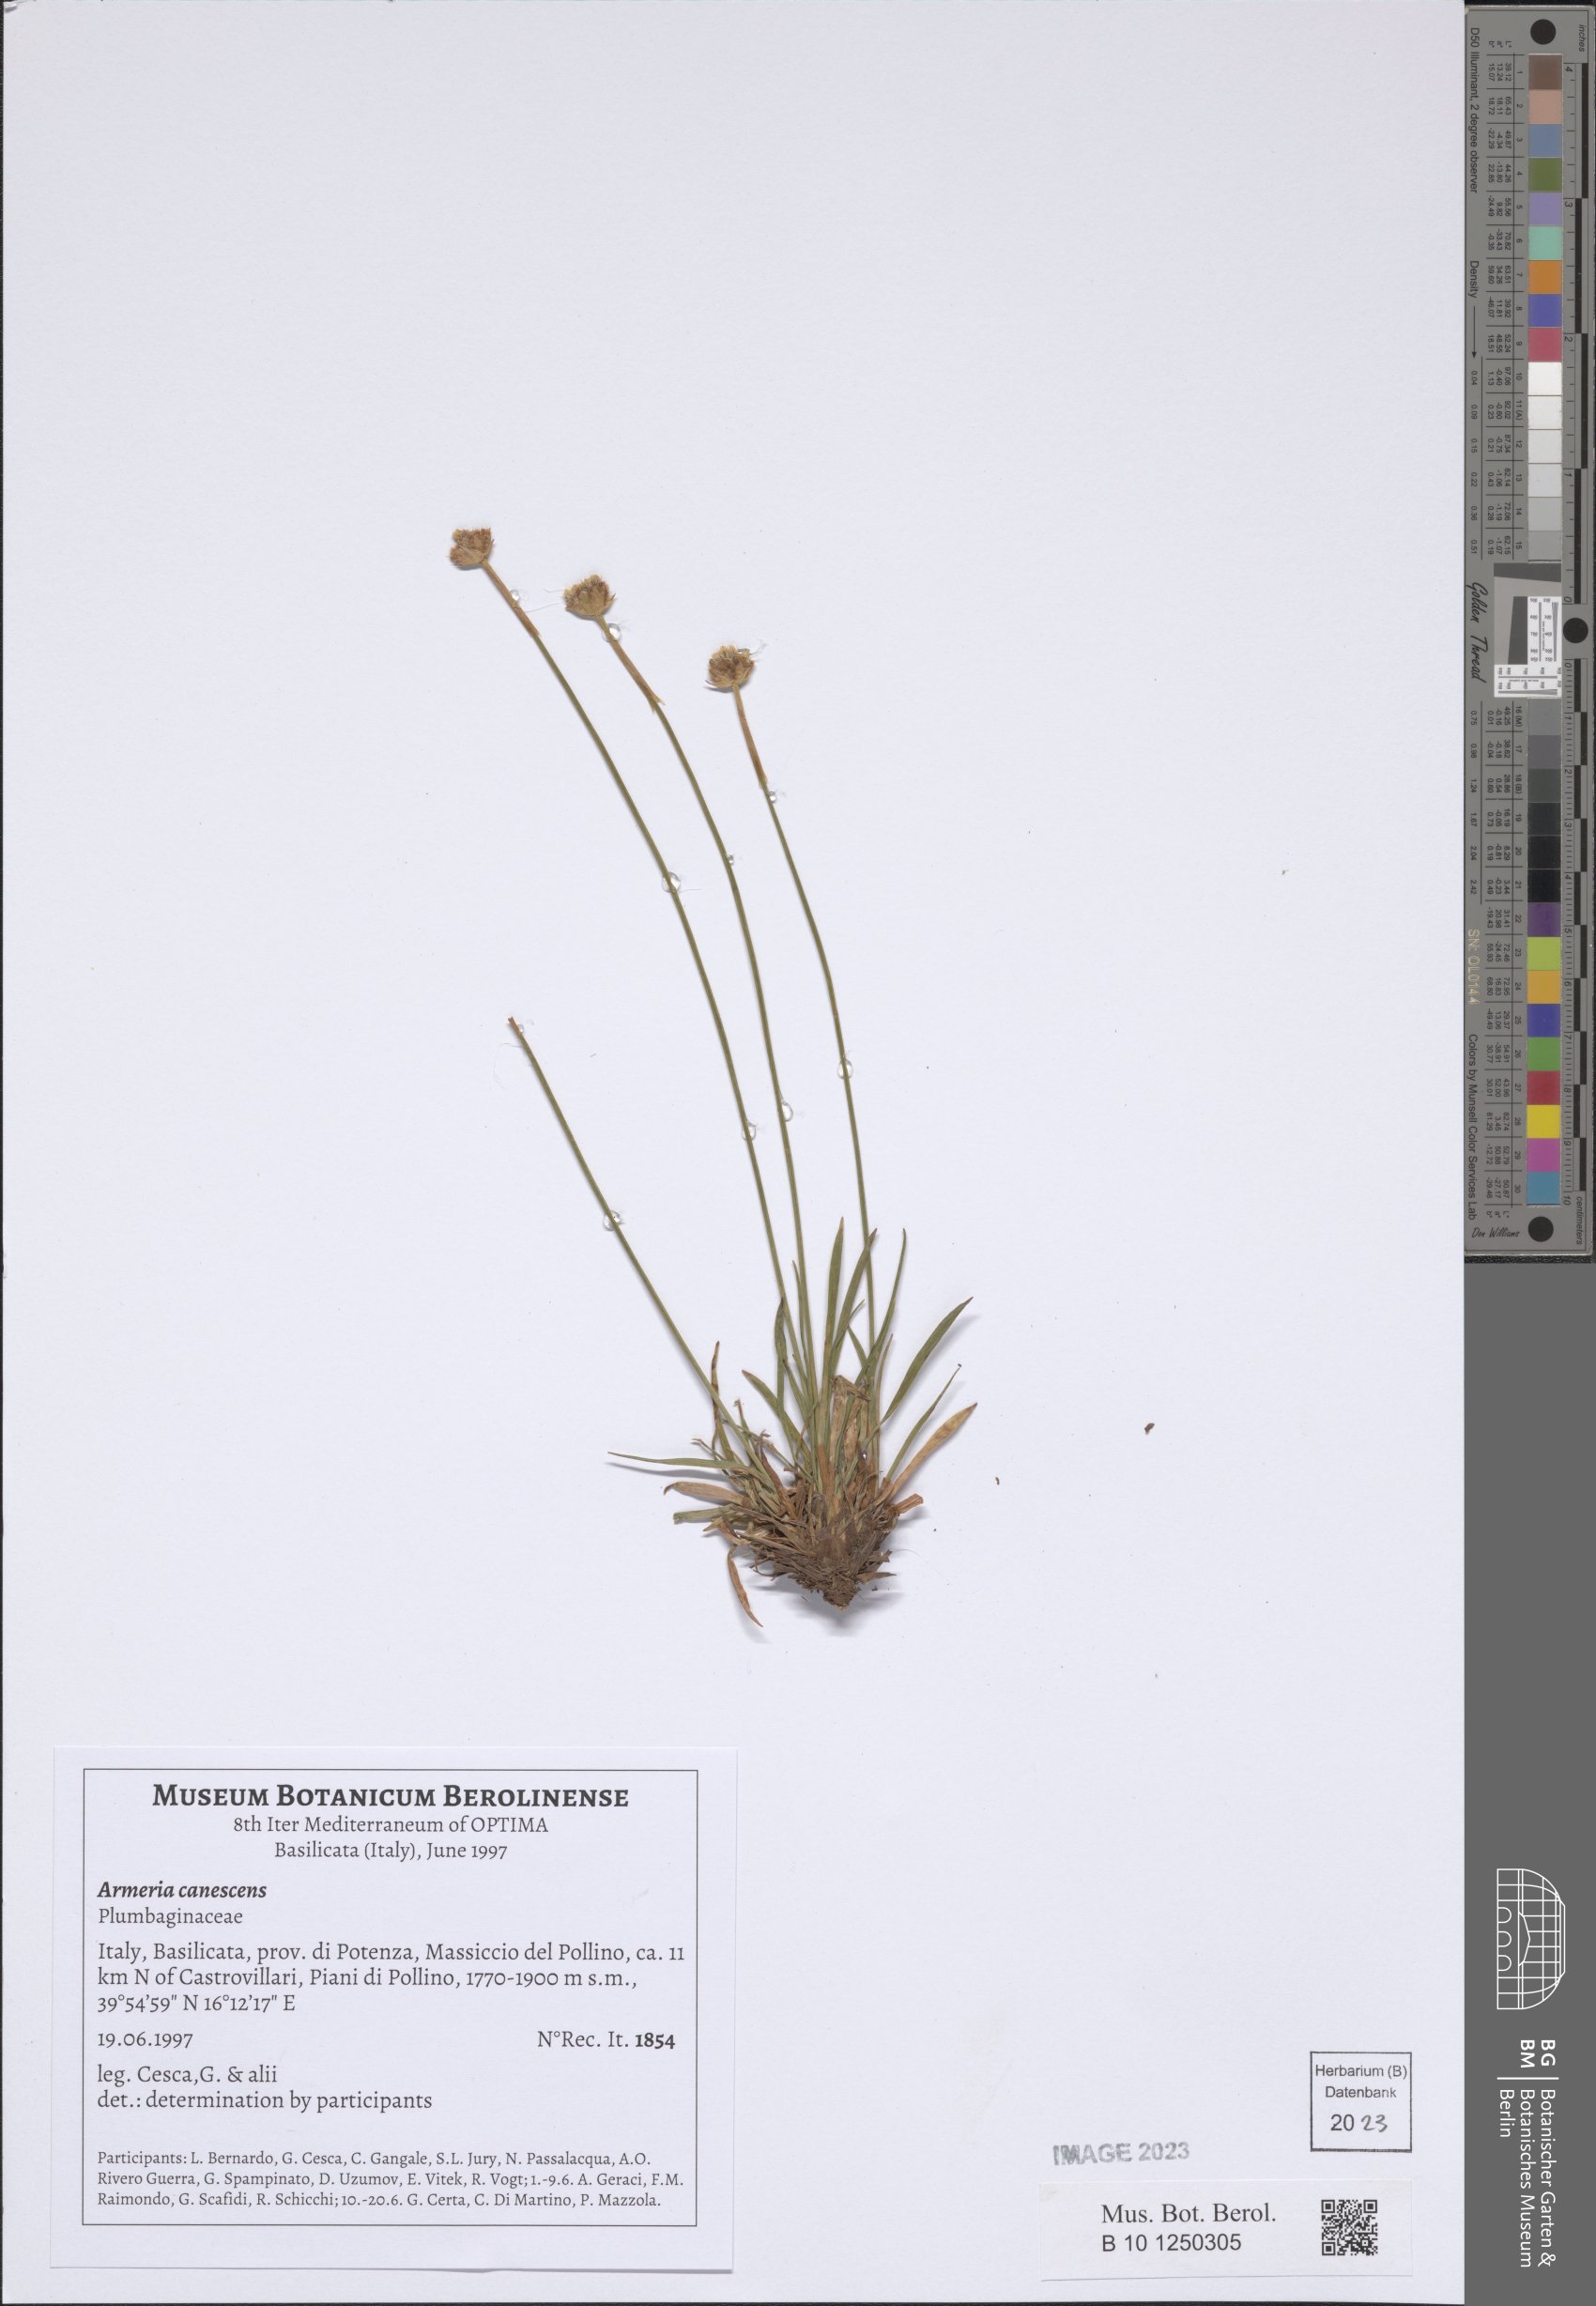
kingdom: Plantae
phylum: Tracheophyta
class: Magnoliopsida
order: Caryophyllales
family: Plumbaginaceae
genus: Armeria
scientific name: Armeria canescens
